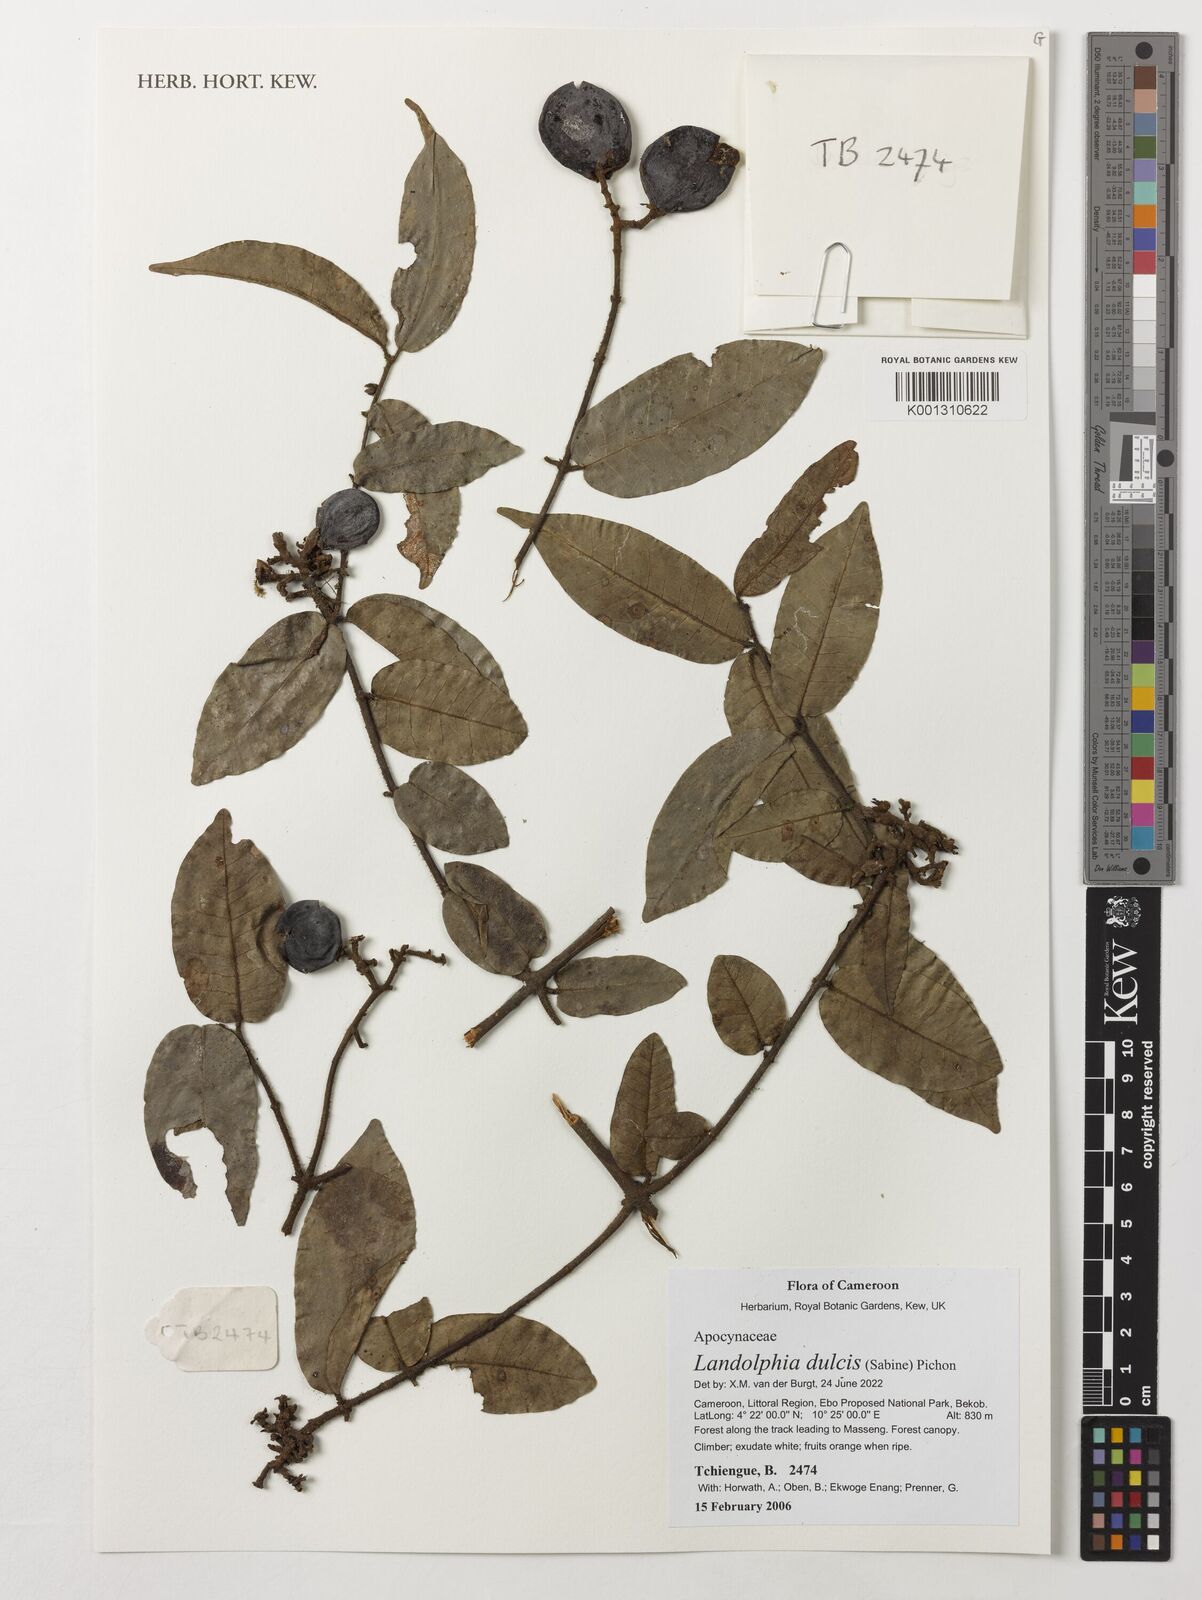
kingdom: Plantae
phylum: Tracheophyta
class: Magnoliopsida
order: Gentianales
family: Apocynaceae
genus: Landolphia
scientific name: Landolphia dulcis
